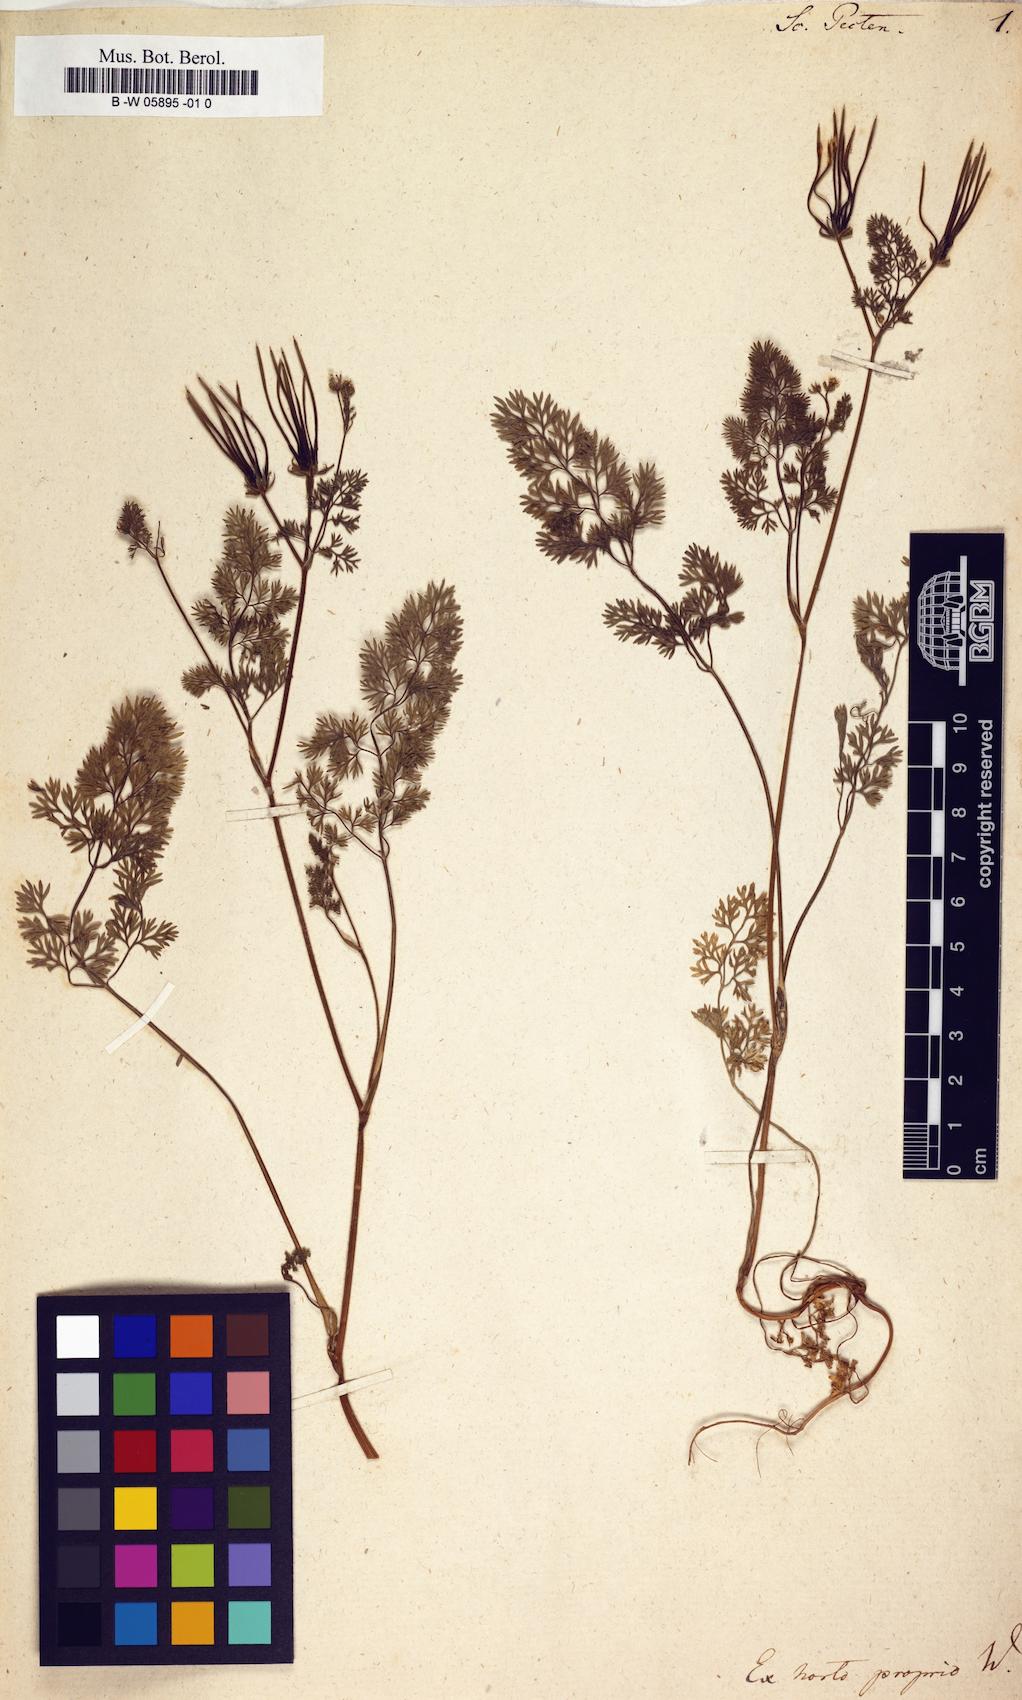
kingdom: Plantae
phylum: Tracheophyta
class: Magnoliopsida
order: Apiales
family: Apiaceae
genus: Scandix
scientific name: Scandix pecten
